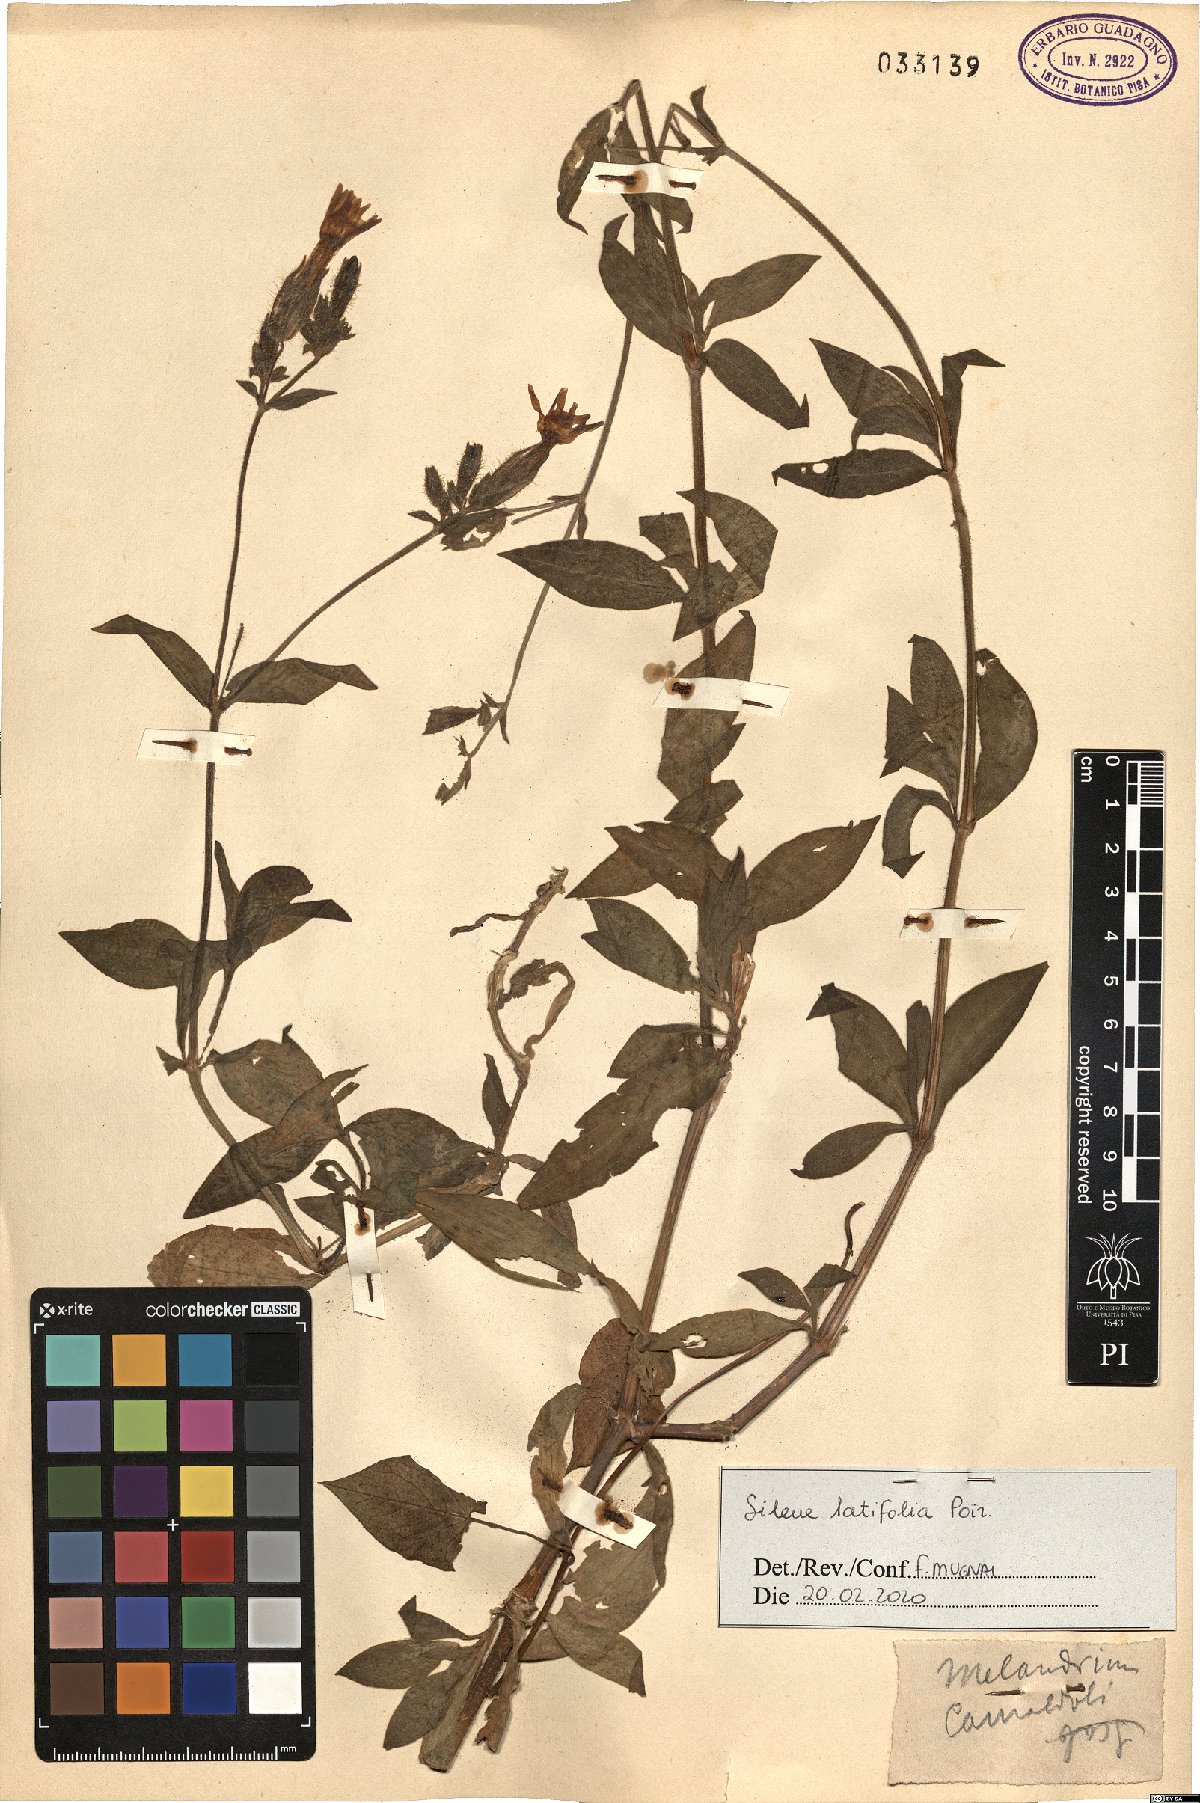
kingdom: Plantae
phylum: Tracheophyta
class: Magnoliopsida
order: Caryophyllales
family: Caryophyllaceae
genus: Silene
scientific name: Silene latifolia
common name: White campion
